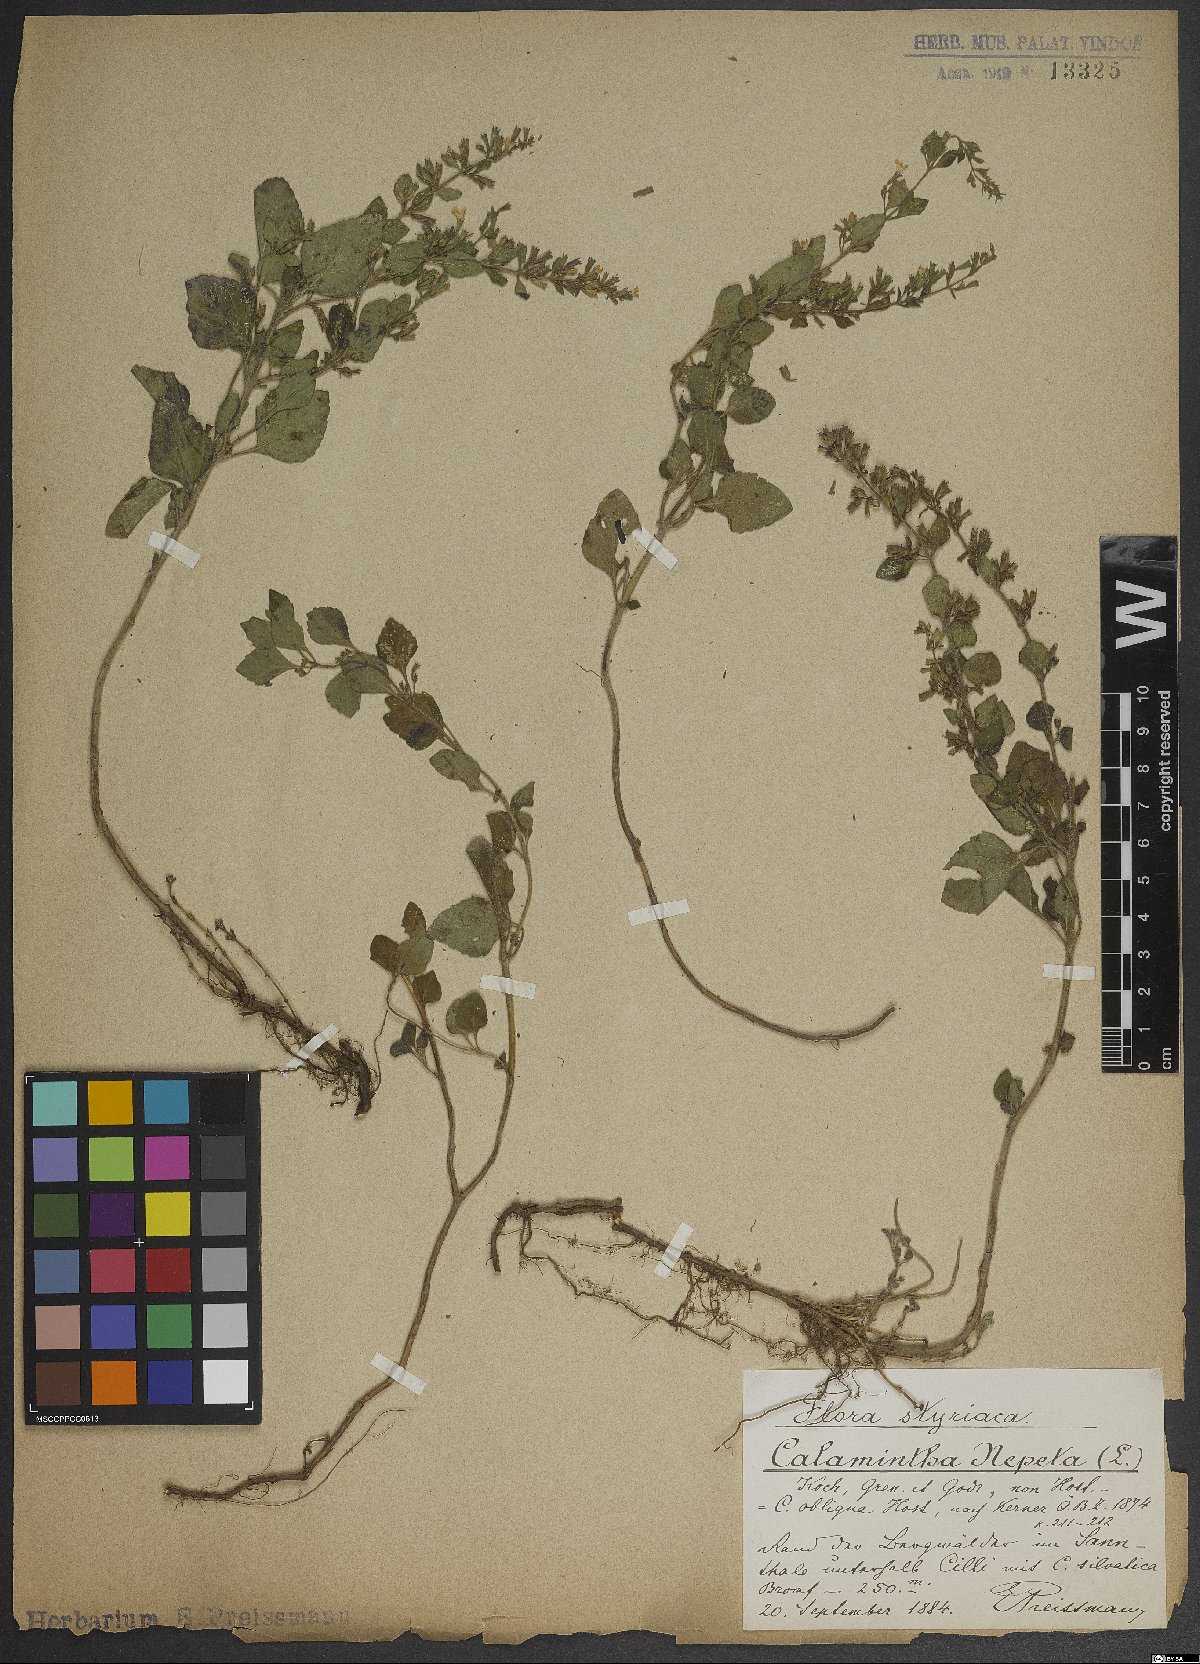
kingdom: Plantae
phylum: Tracheophyta
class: Magnoliopsida
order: Lamiales
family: Lamiaceae
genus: Clinopodium
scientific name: Clinopodium nepeta
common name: Lesser calamint
